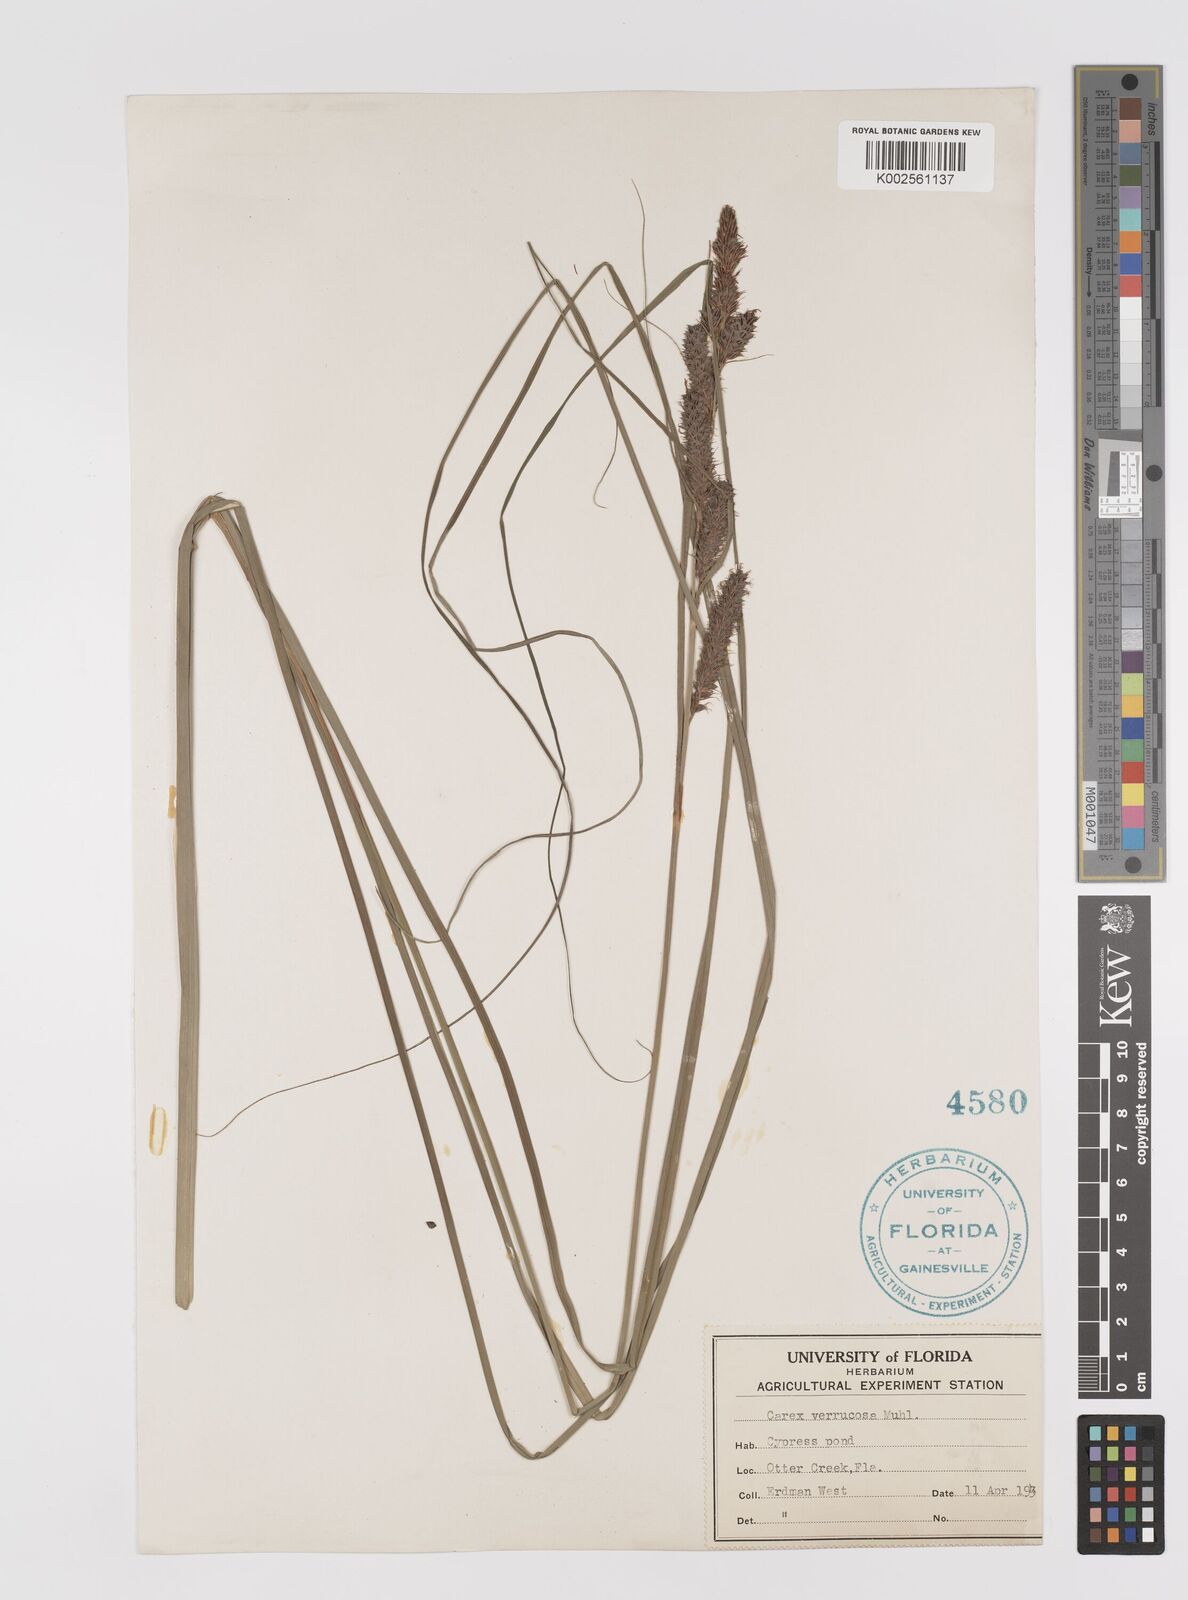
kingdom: Plantae
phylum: Tracheophyta
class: Liliopsida
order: Poales
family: Cyperaceae
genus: Carex
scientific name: Carex glaucescens
